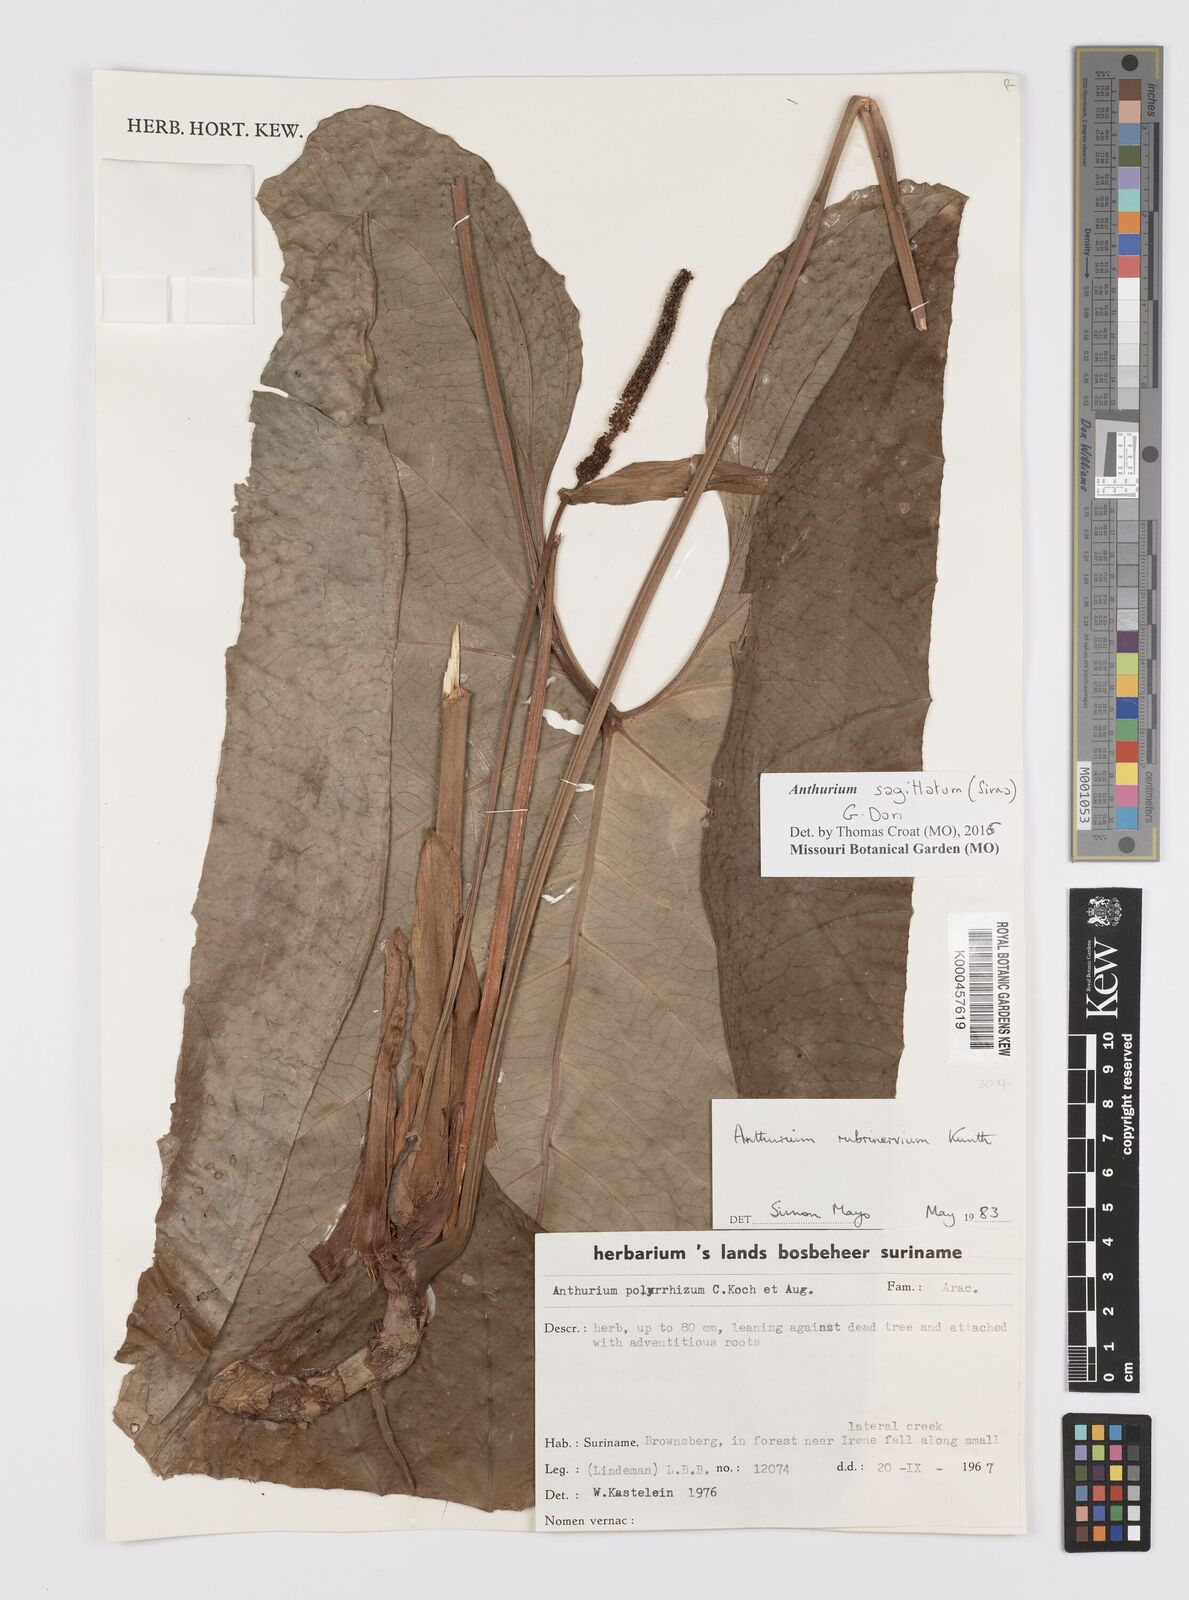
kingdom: Plantae
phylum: Tracheophyta
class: Liliopsida
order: Alismatales
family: Araceae
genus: Anthurium
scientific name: Anthurium sagittatum
